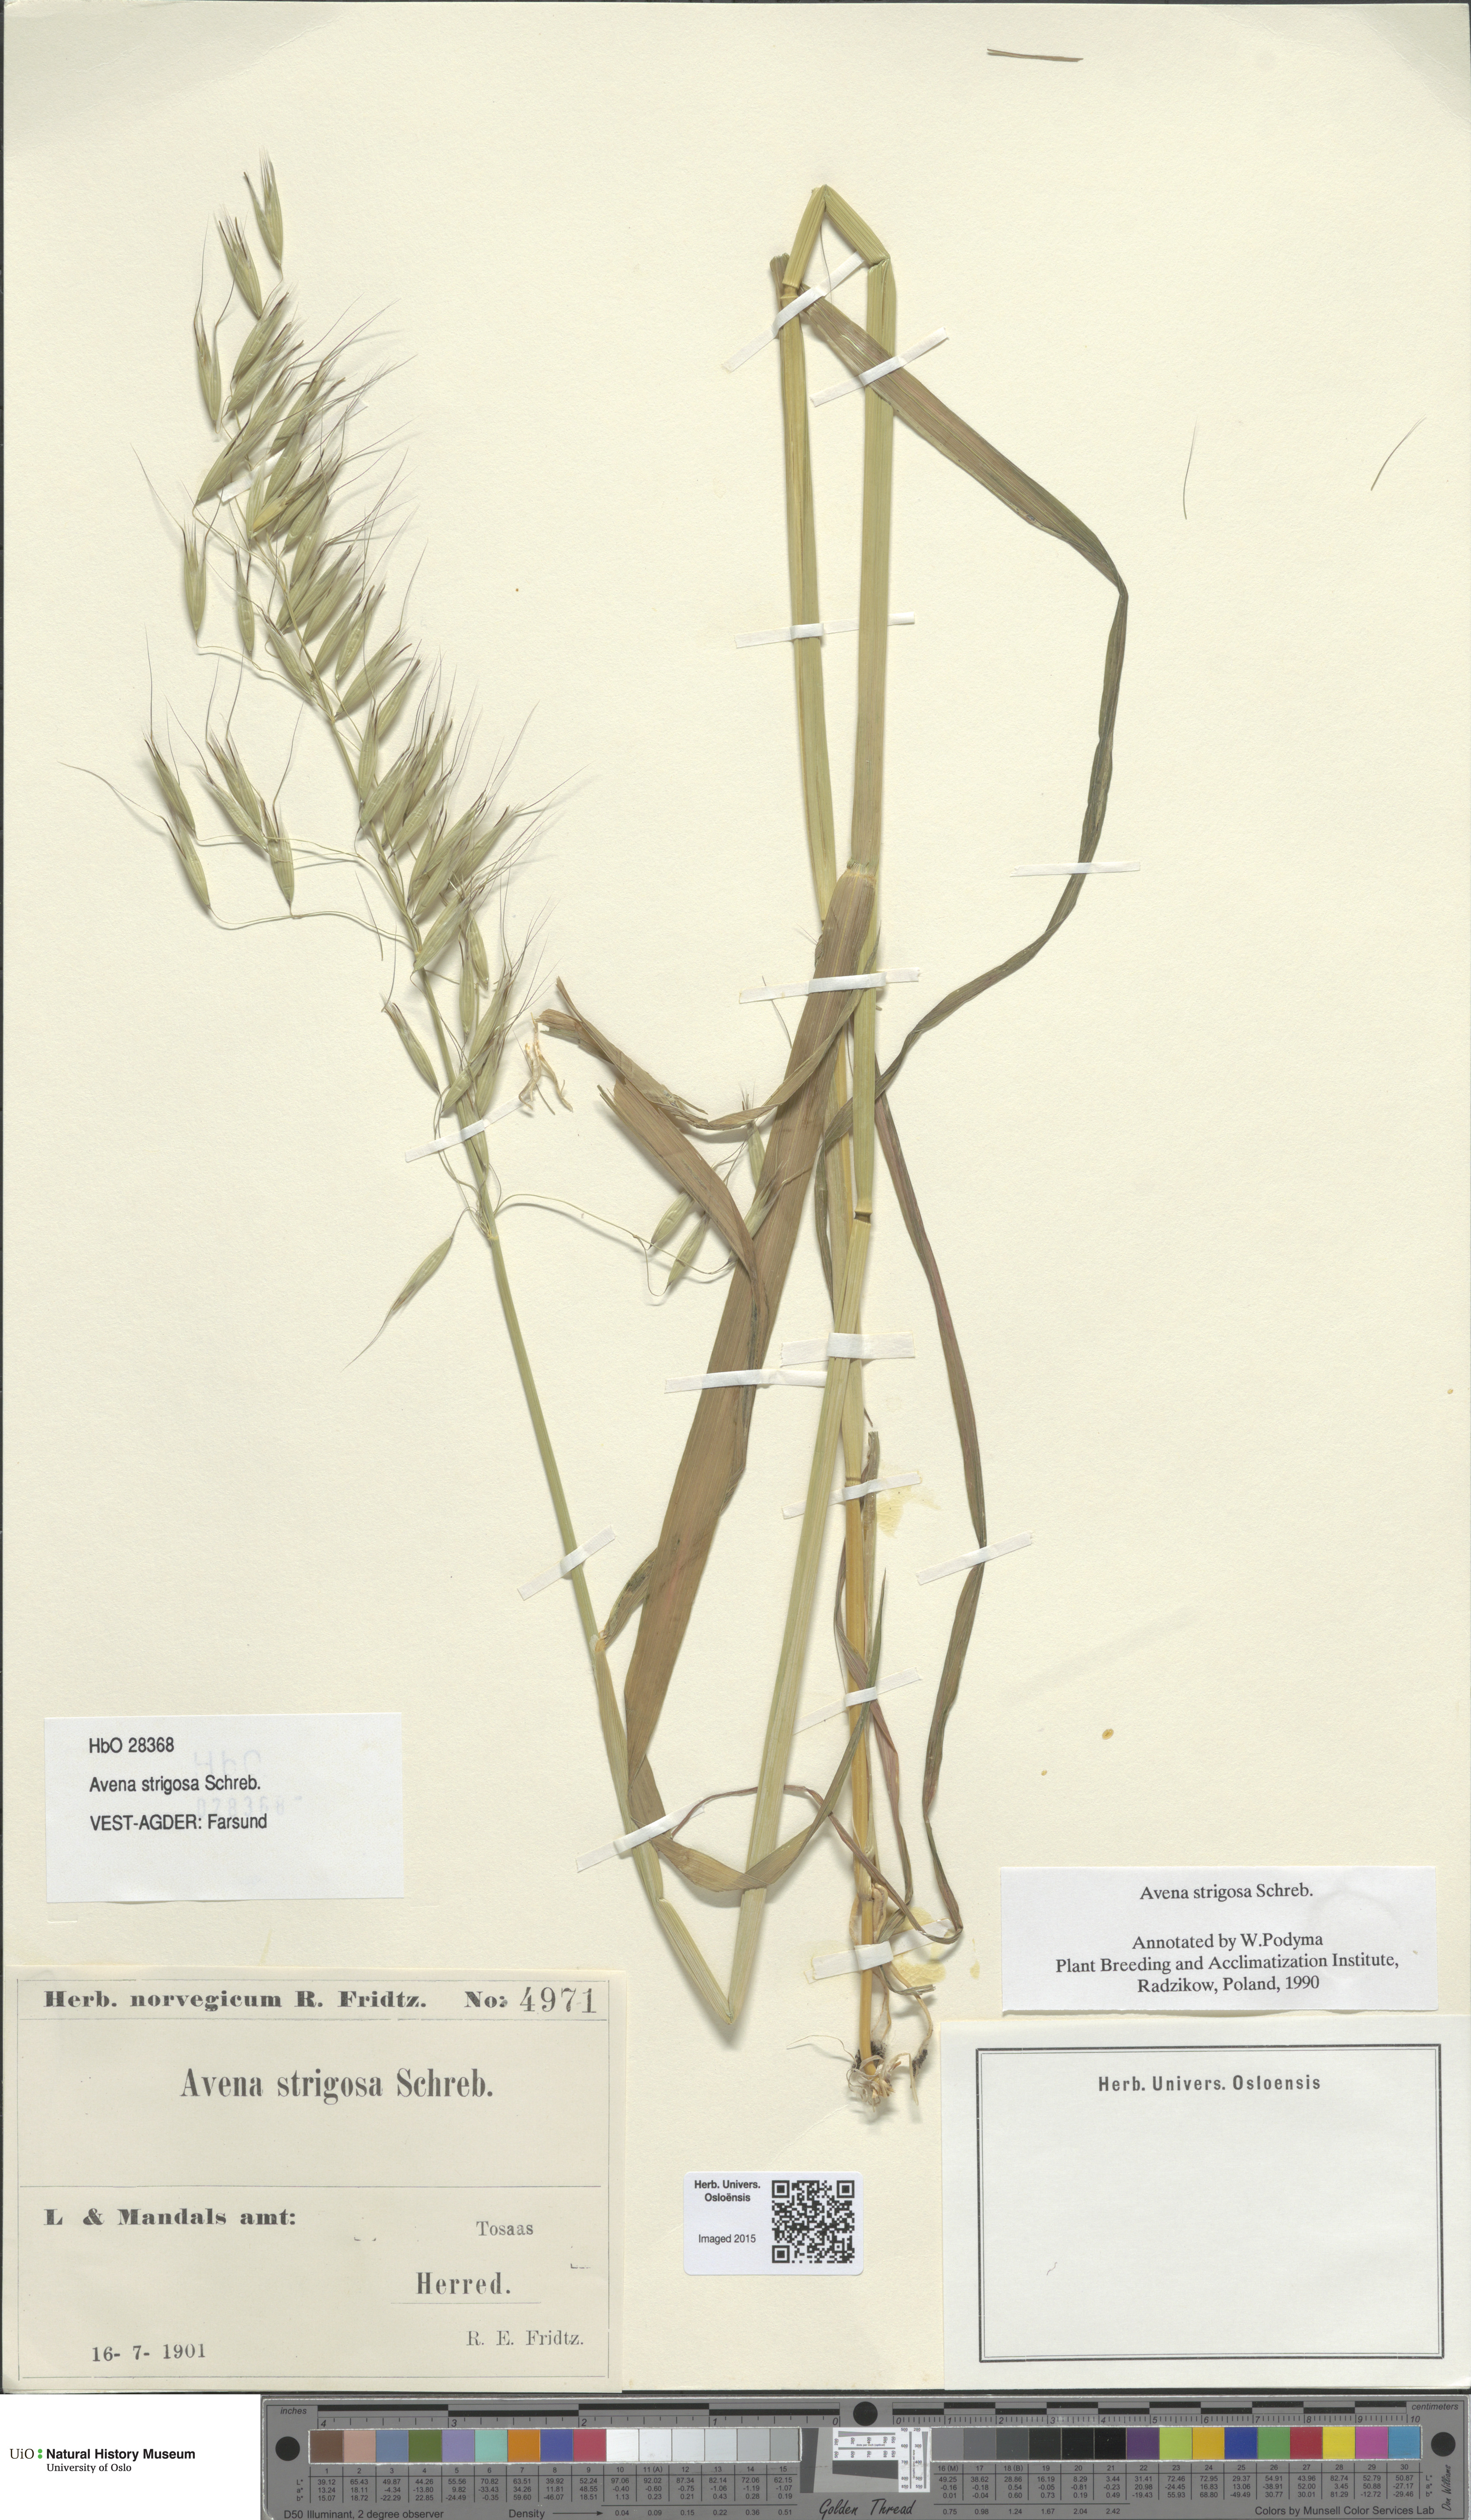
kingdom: Plantae
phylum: Tracheophyta
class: Liliopsida
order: Poales
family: Poaceae
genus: Avena
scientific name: Avena strigosa
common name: Bristle oat
